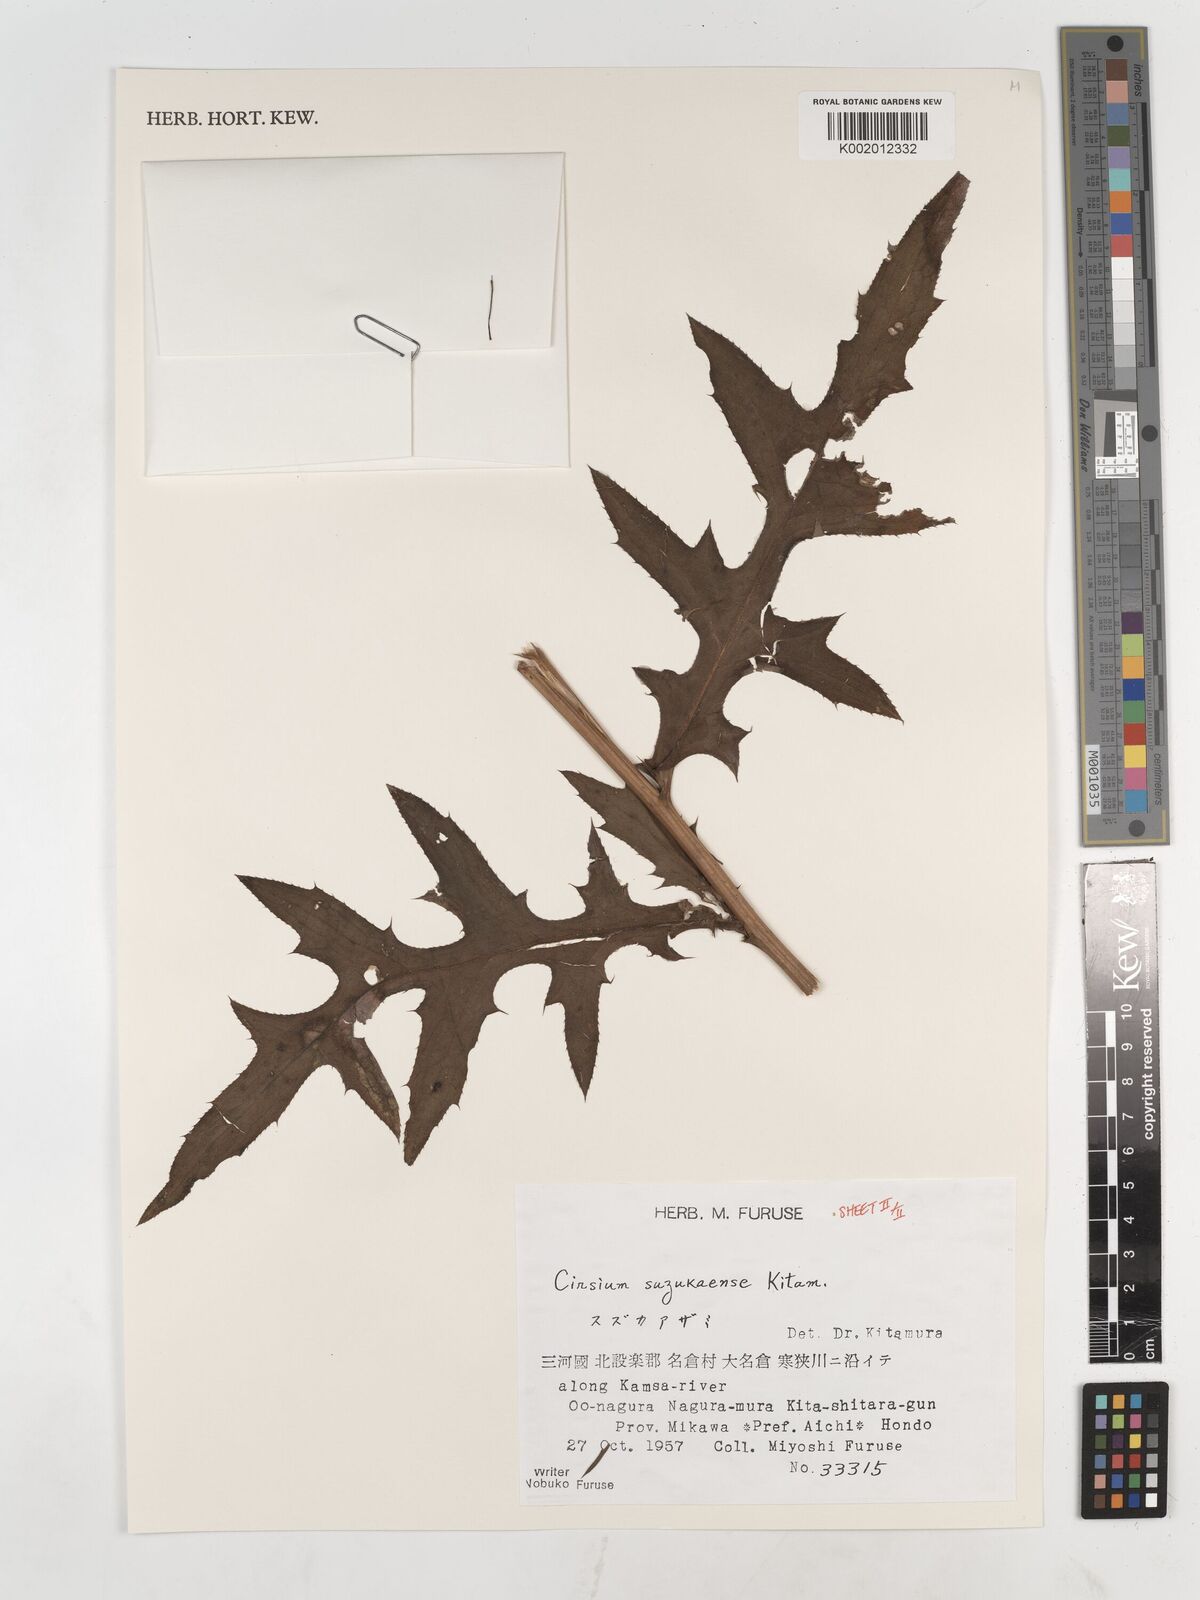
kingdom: Plantae
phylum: Tracheophyta
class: Magnoliopsida
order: Asterales
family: Asteraceae
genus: Cirsium
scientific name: Cirsium suzukaense
